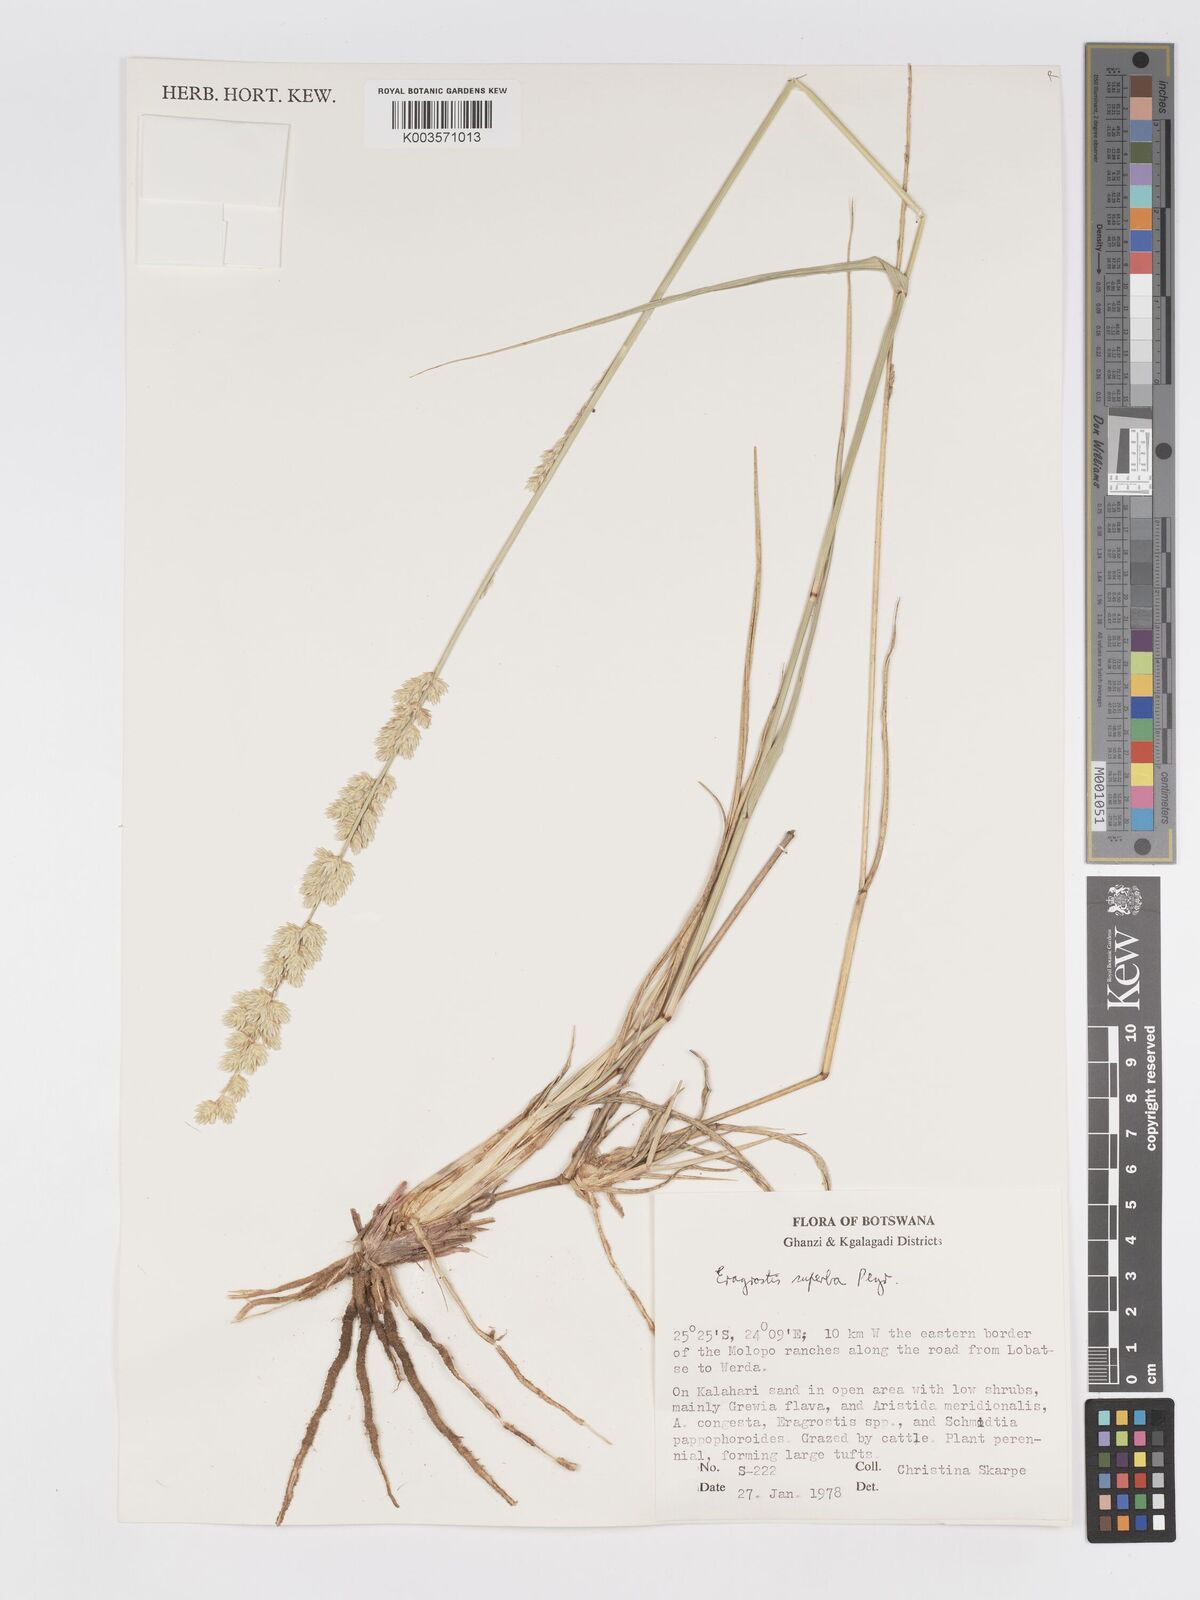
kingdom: Plantae
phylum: Tracheophyta
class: Liliopsida
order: Poales
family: Poaceae
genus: Eragrostis
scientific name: Eragrostis superba
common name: Wilman lovegrass
